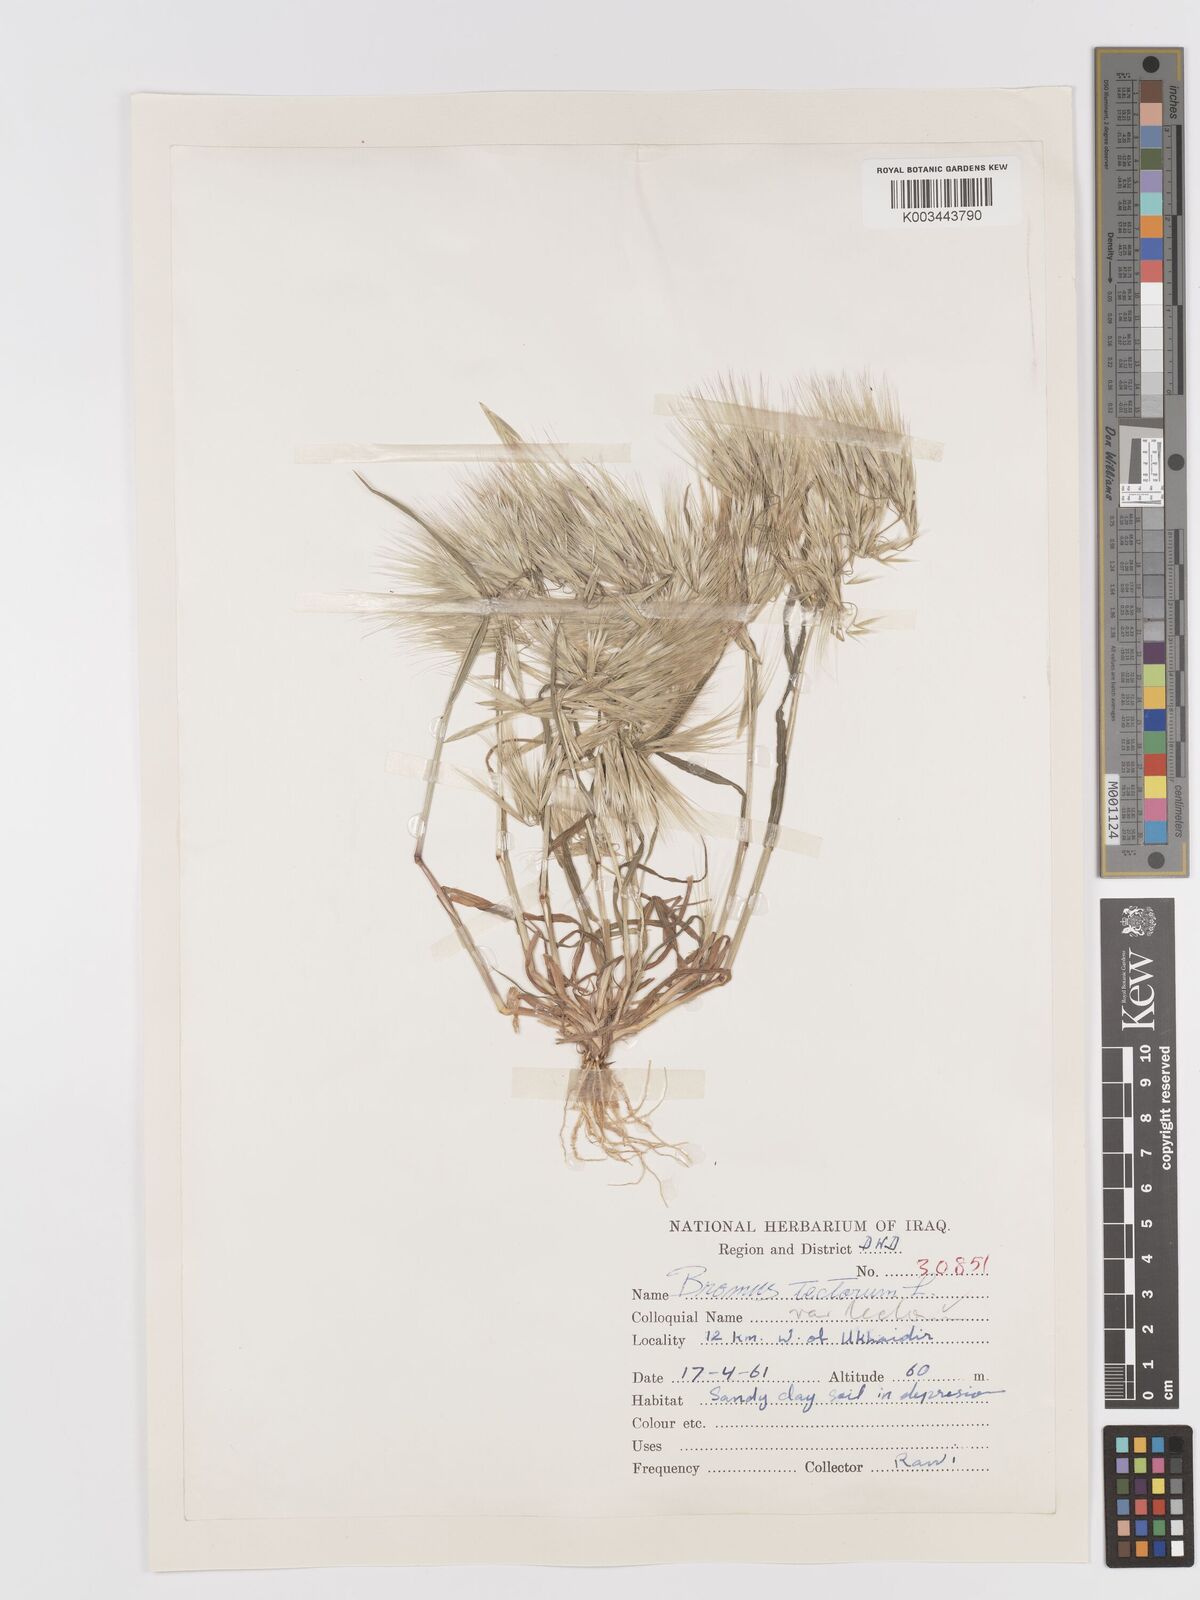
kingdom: Plantae
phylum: Tracheophyta
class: Liliopsida
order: Poales
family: Poaceae
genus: Bromus
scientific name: Bromus tectorum
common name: Cheatgrass
